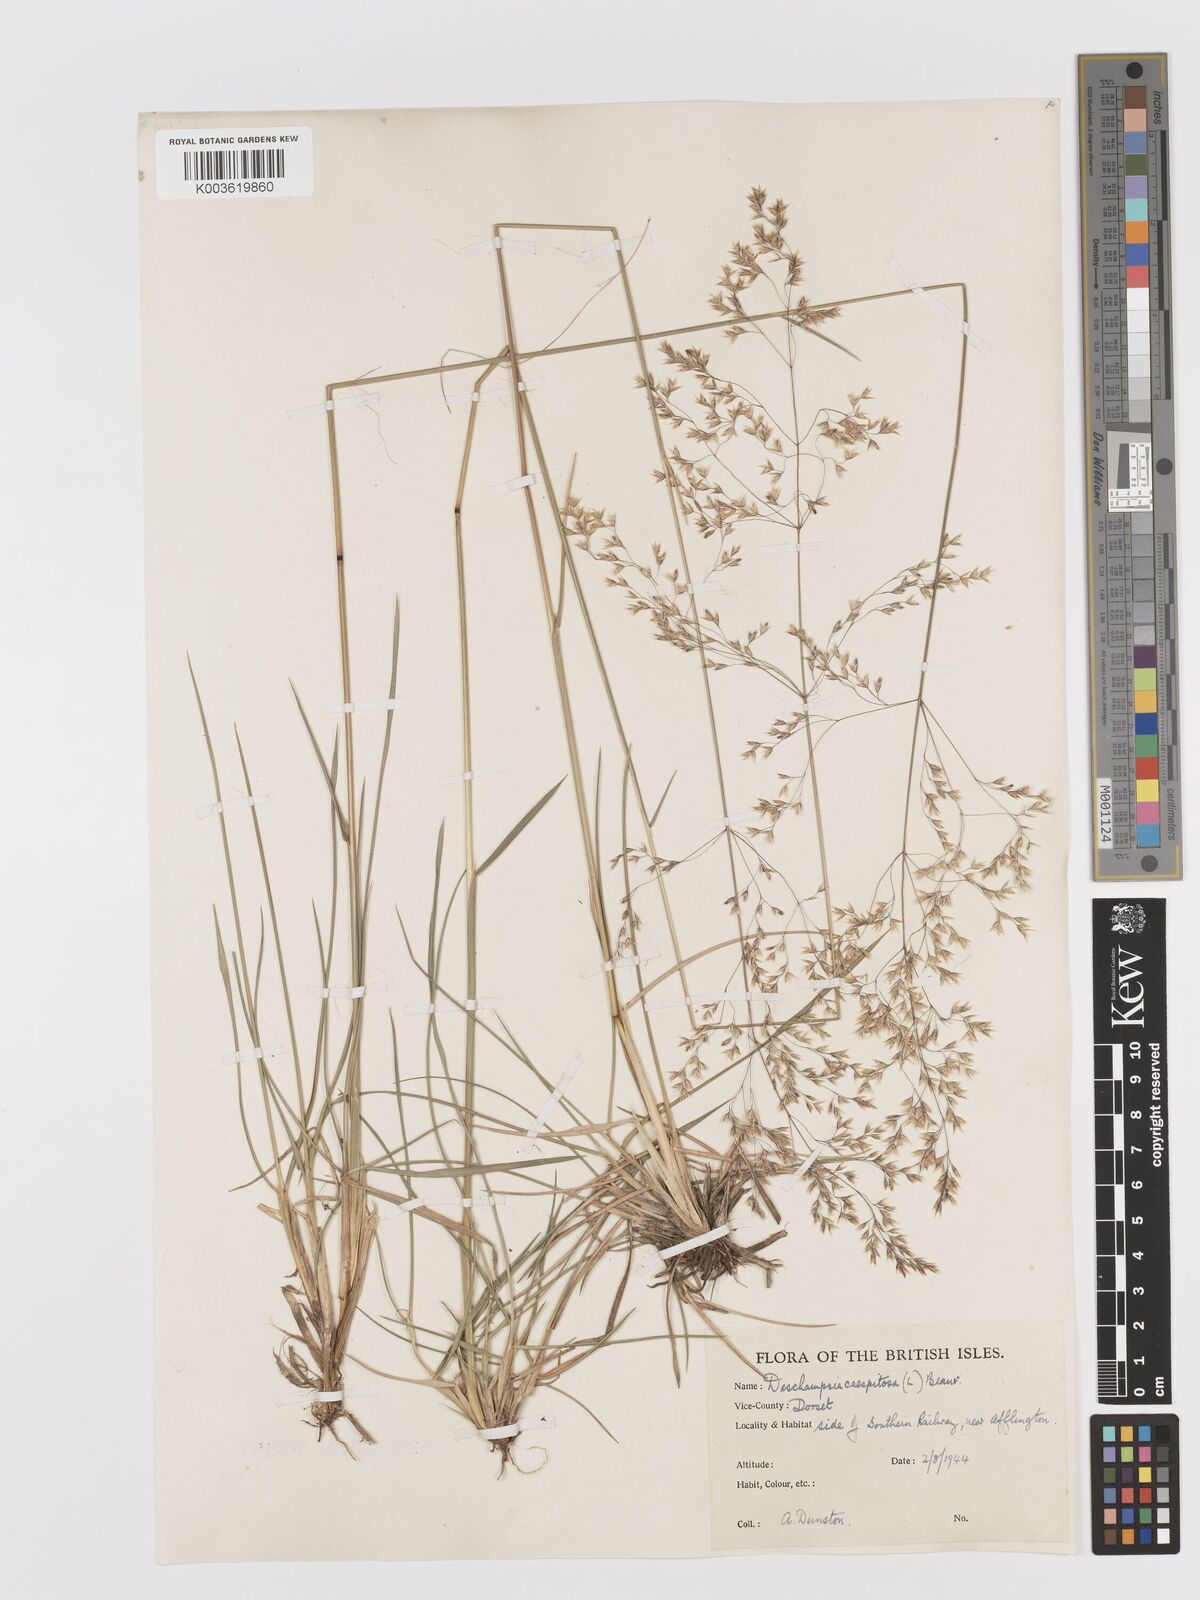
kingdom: Plantae
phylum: Tracheophyta
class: Liliopsida
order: Poales
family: Poaceae
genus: Deschampsia
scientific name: Deschampsia cespitosa
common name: Tufted hair-grass
